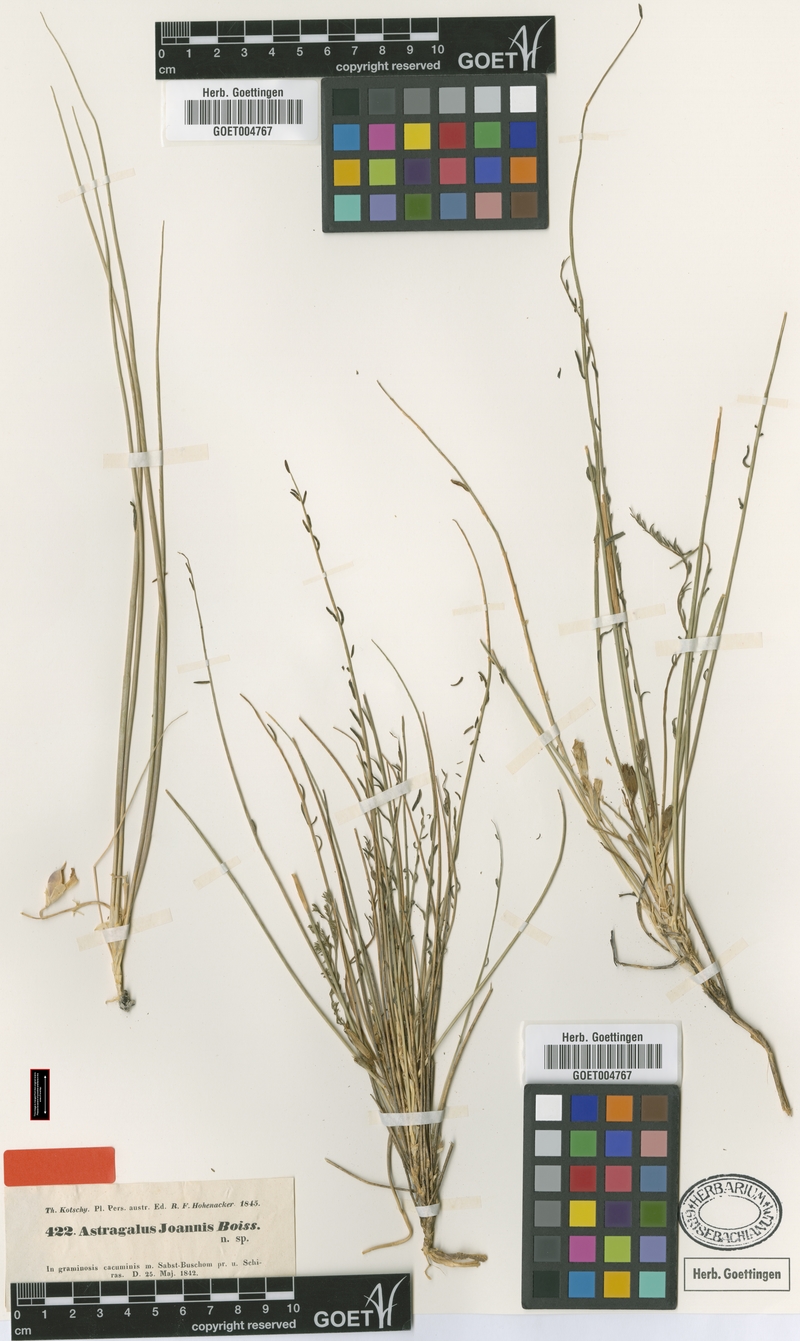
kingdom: Plantae
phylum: Tracheophyta
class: Magnoliopsida
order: Fabales
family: Fabaceae
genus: Astragalus
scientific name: Astragalus
